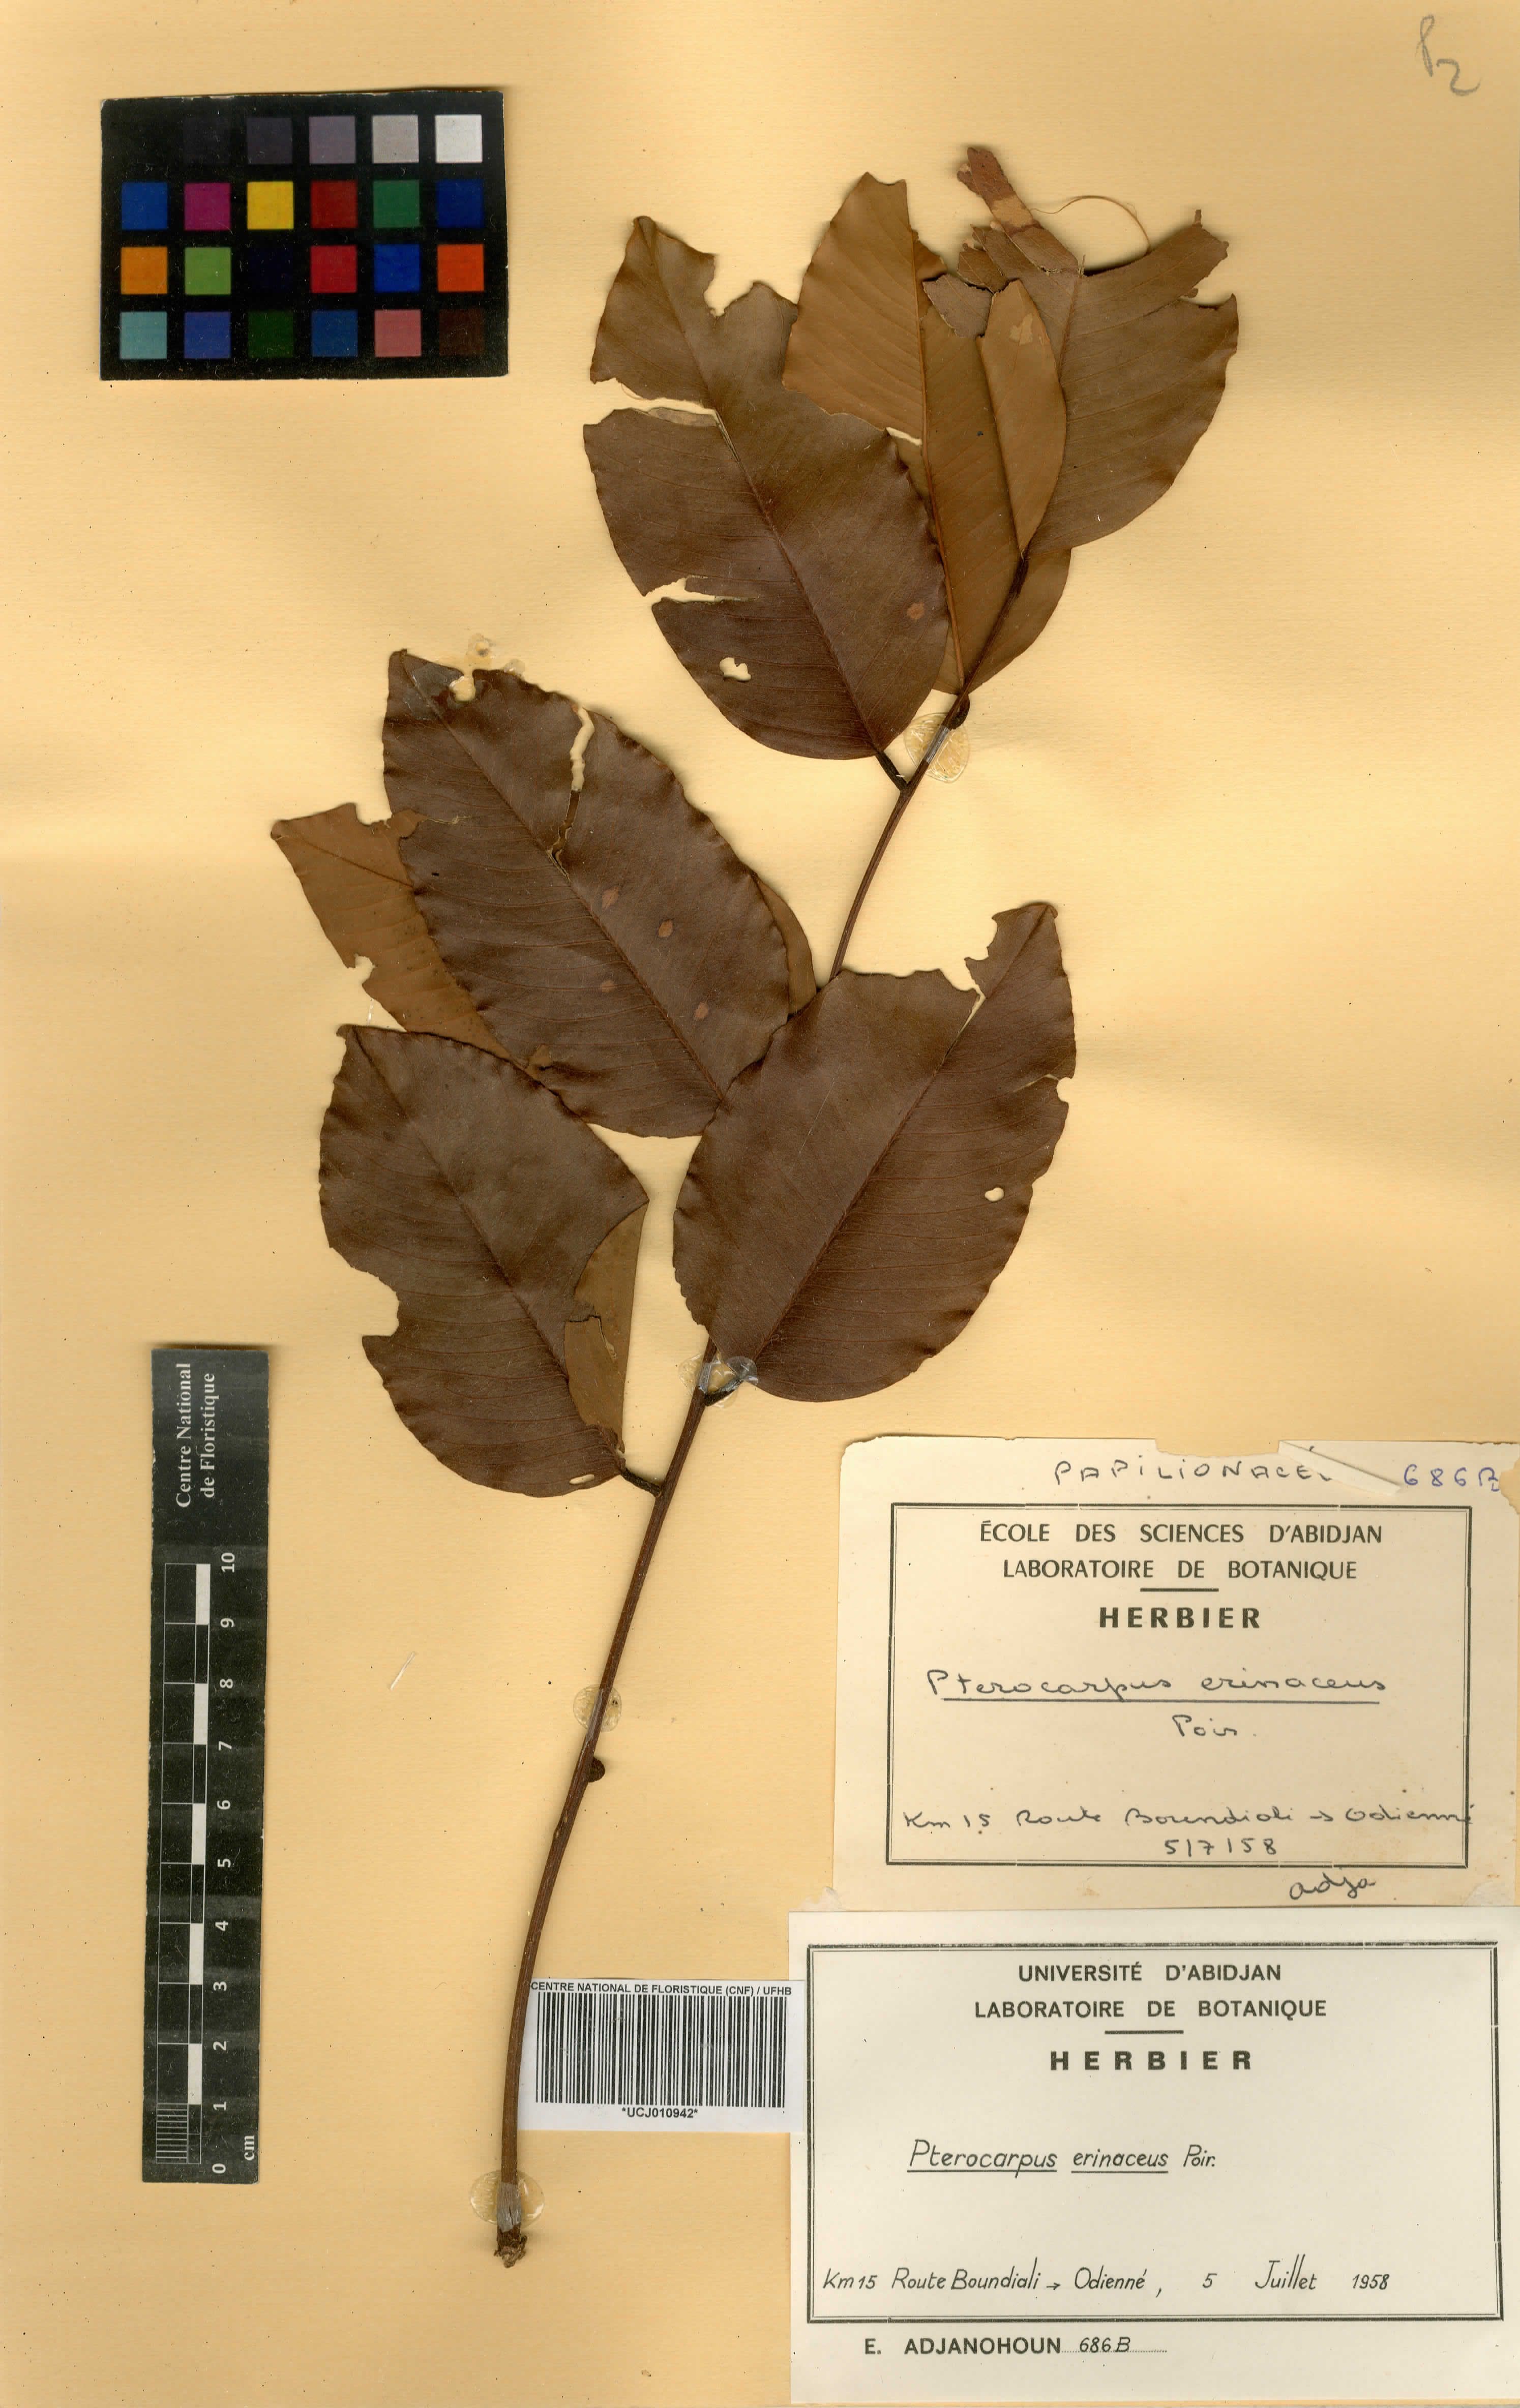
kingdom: Plantae
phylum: Tracheophyta
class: Magnoliopsida
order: Fabales
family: Fabaceae
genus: Pterocarpus
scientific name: Pterocarpus erinaceus
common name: African rosewood
